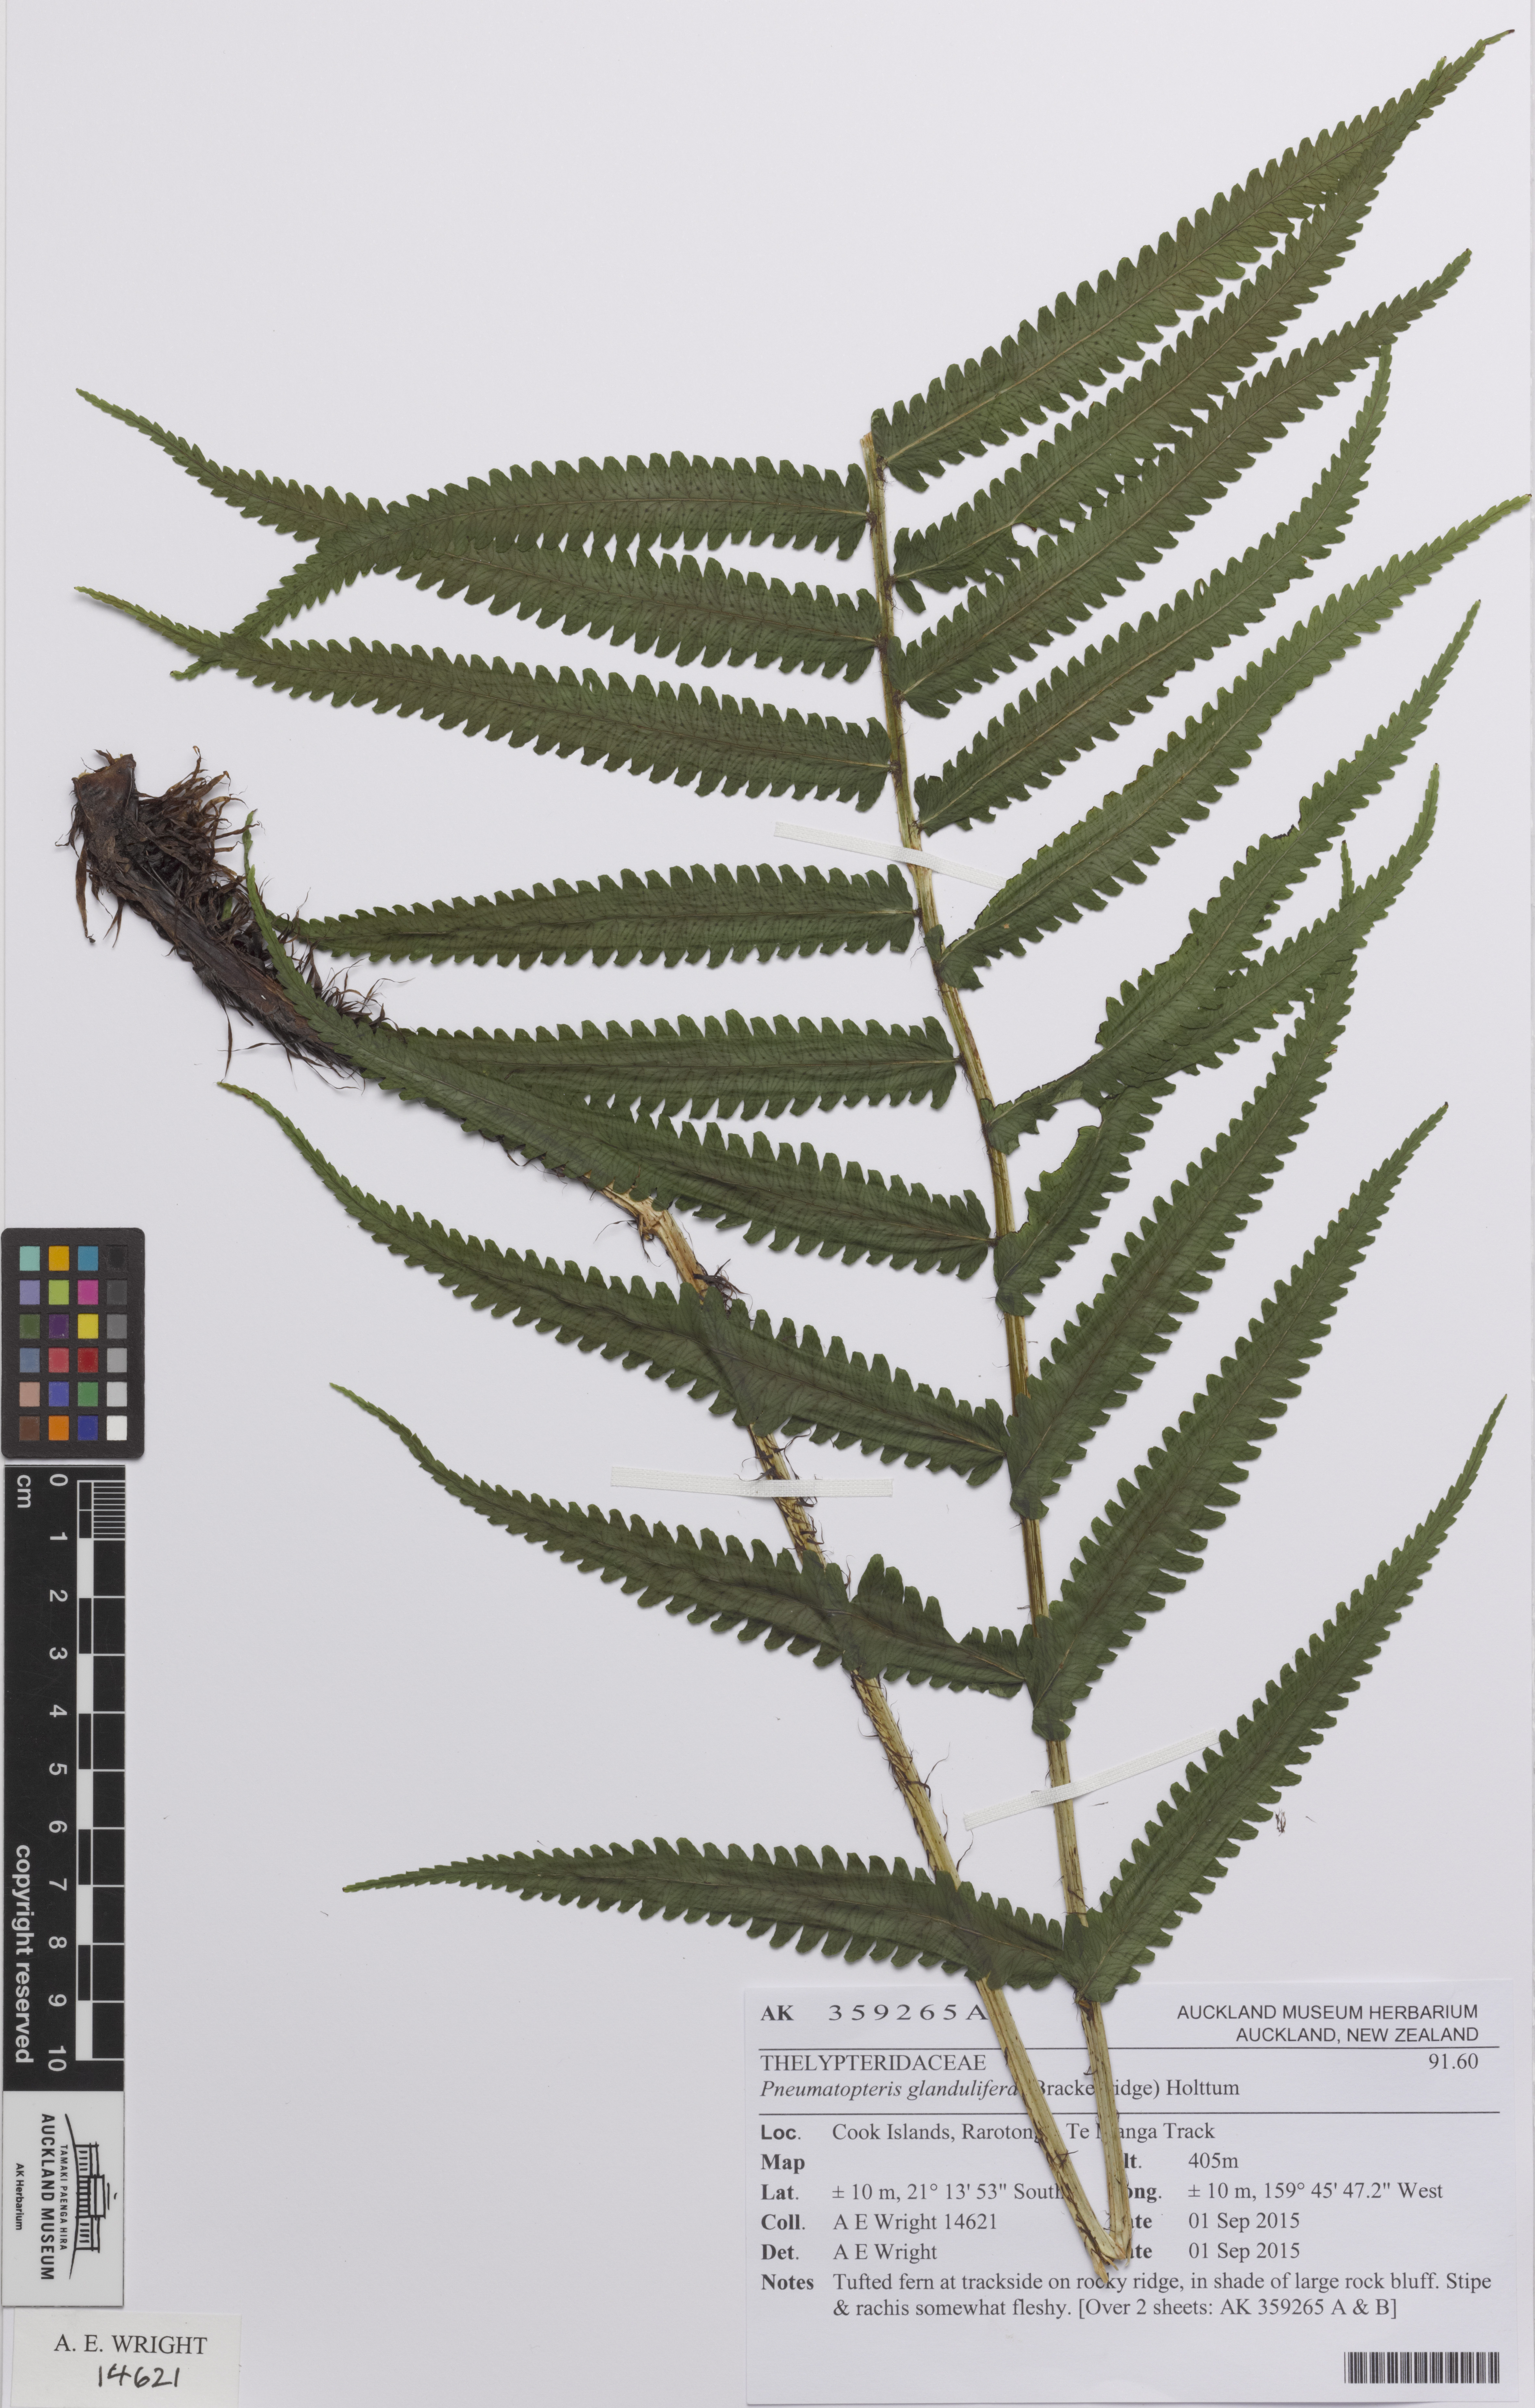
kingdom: Plantae
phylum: Tracheophyta
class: Polypodiopsida
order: Polypodiales
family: Thelypteridaceae
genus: Pneumatopteris
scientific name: Pneumatopteris glandulifera
